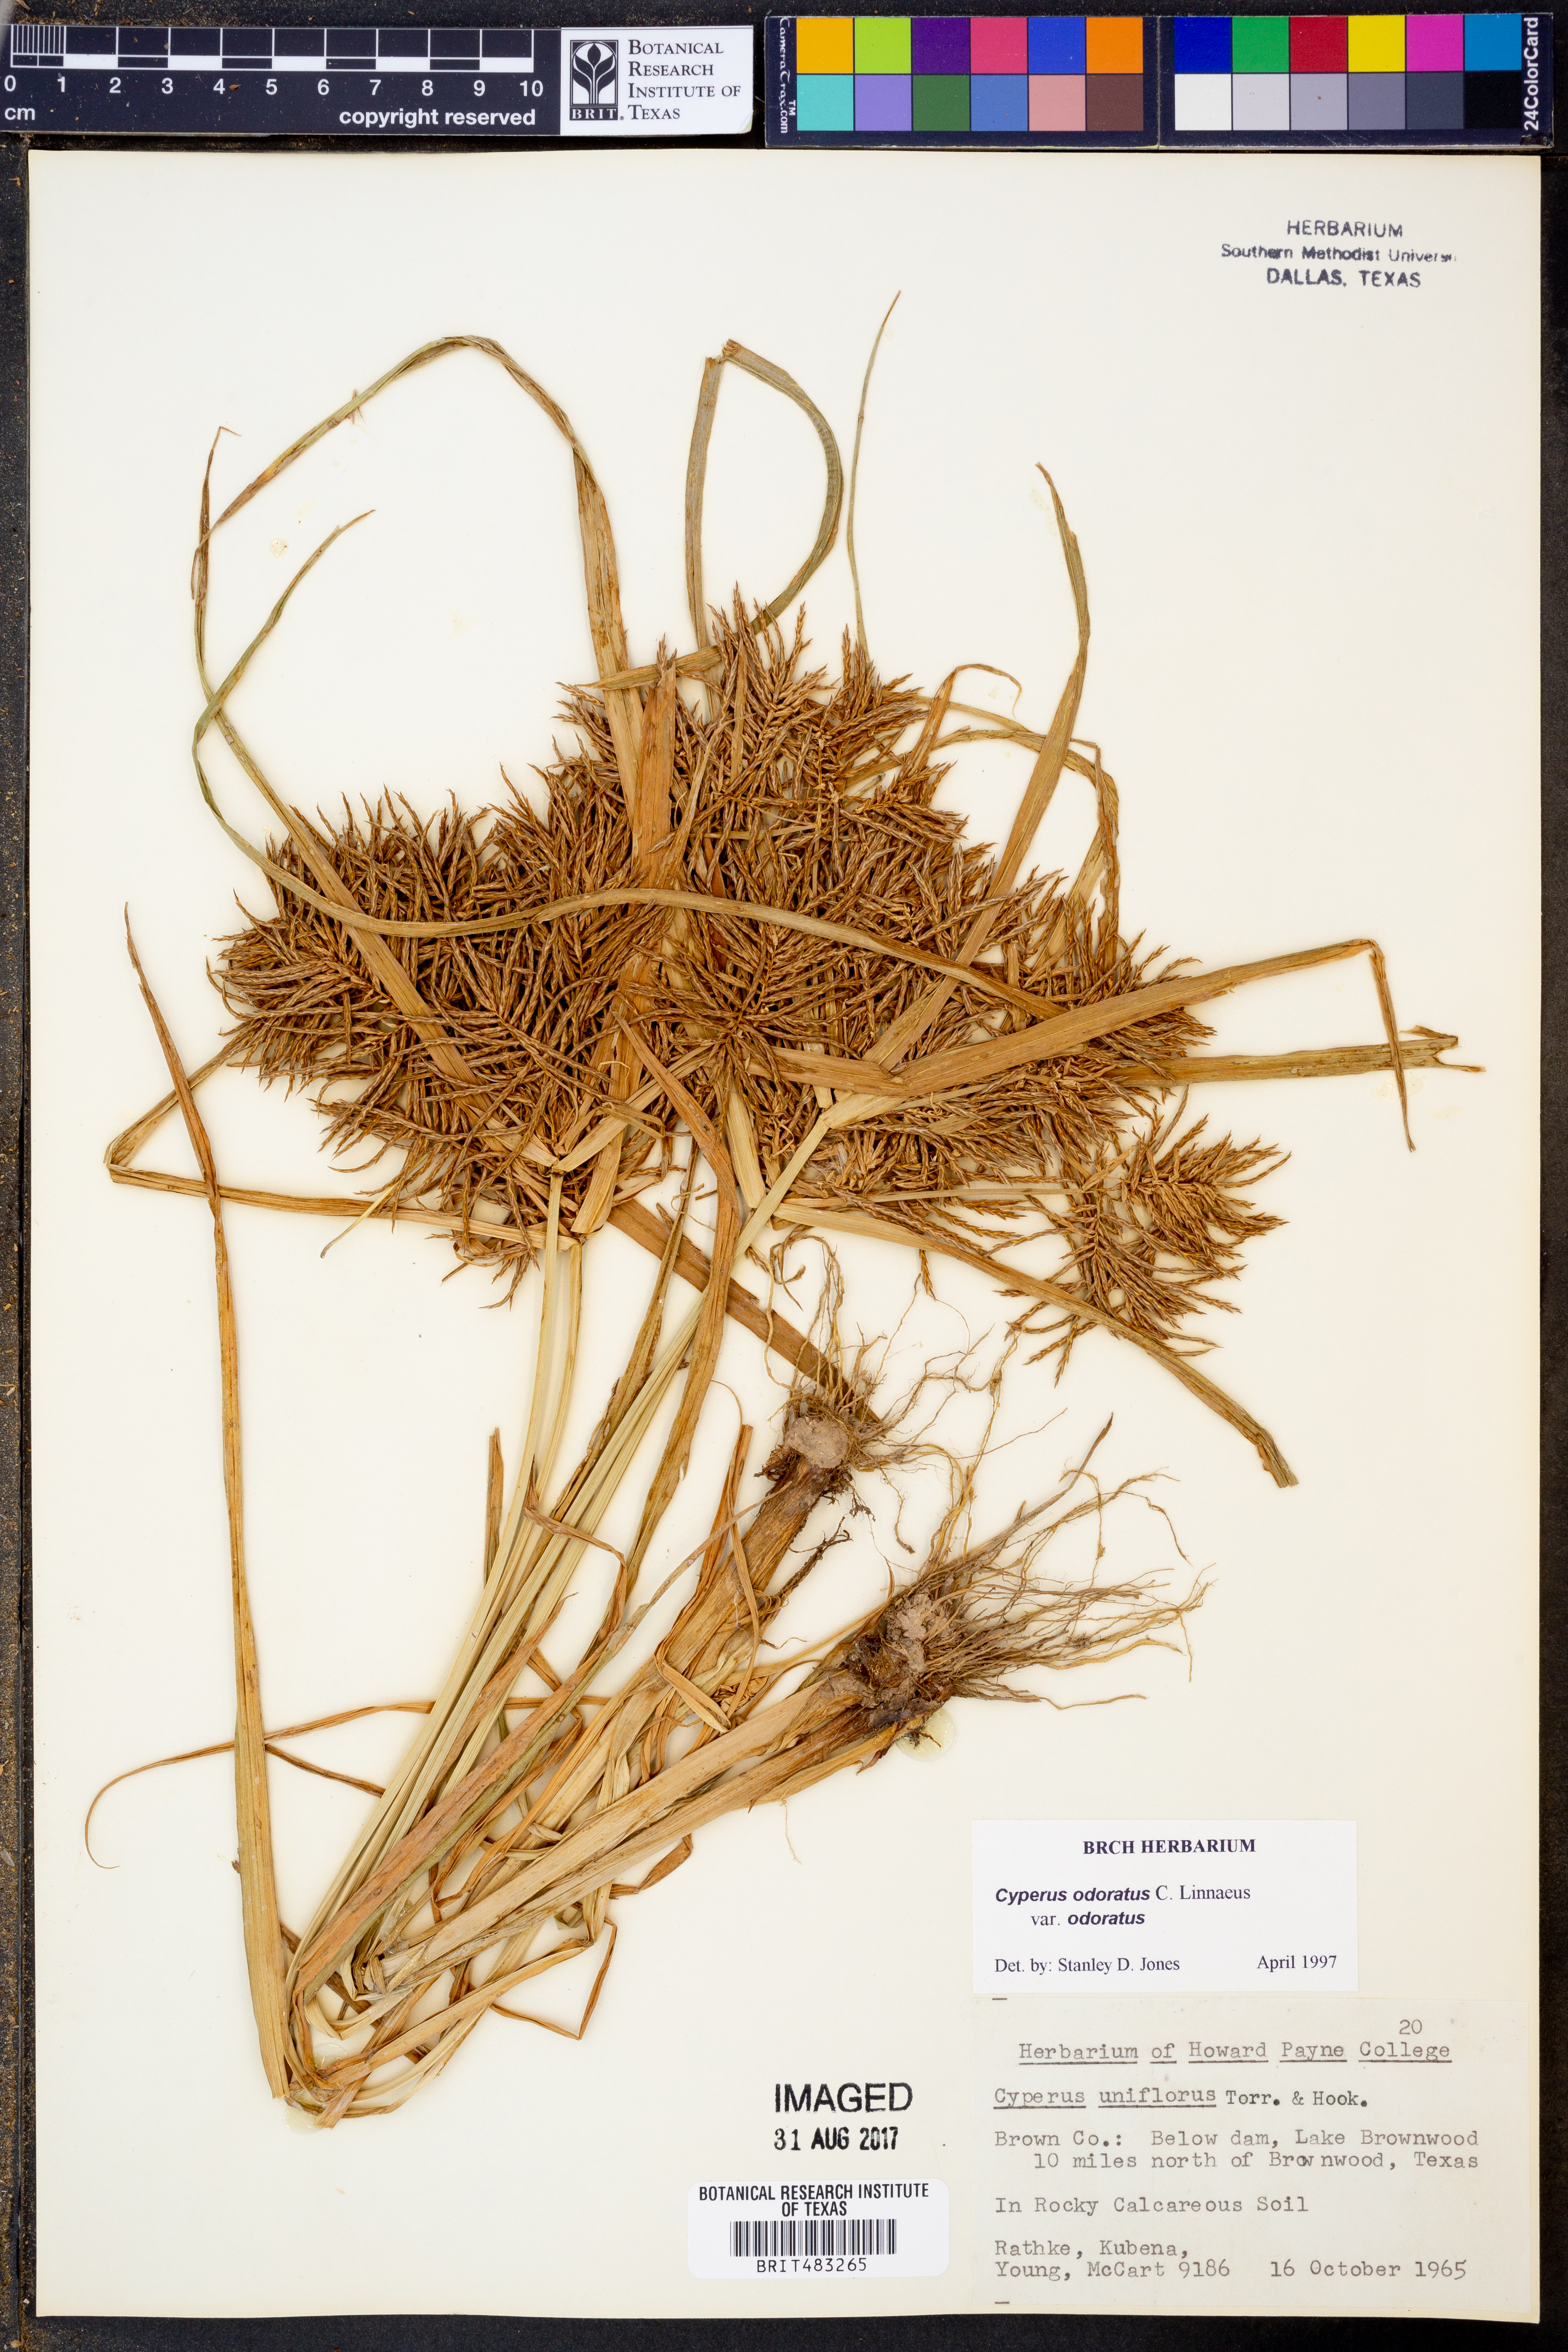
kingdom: Plantae
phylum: Tracheophyta
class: Liliopsida
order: Poales
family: Cyperaceae
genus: Cyperus
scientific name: Cyperus odoratus
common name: Fragrant flatsedge
